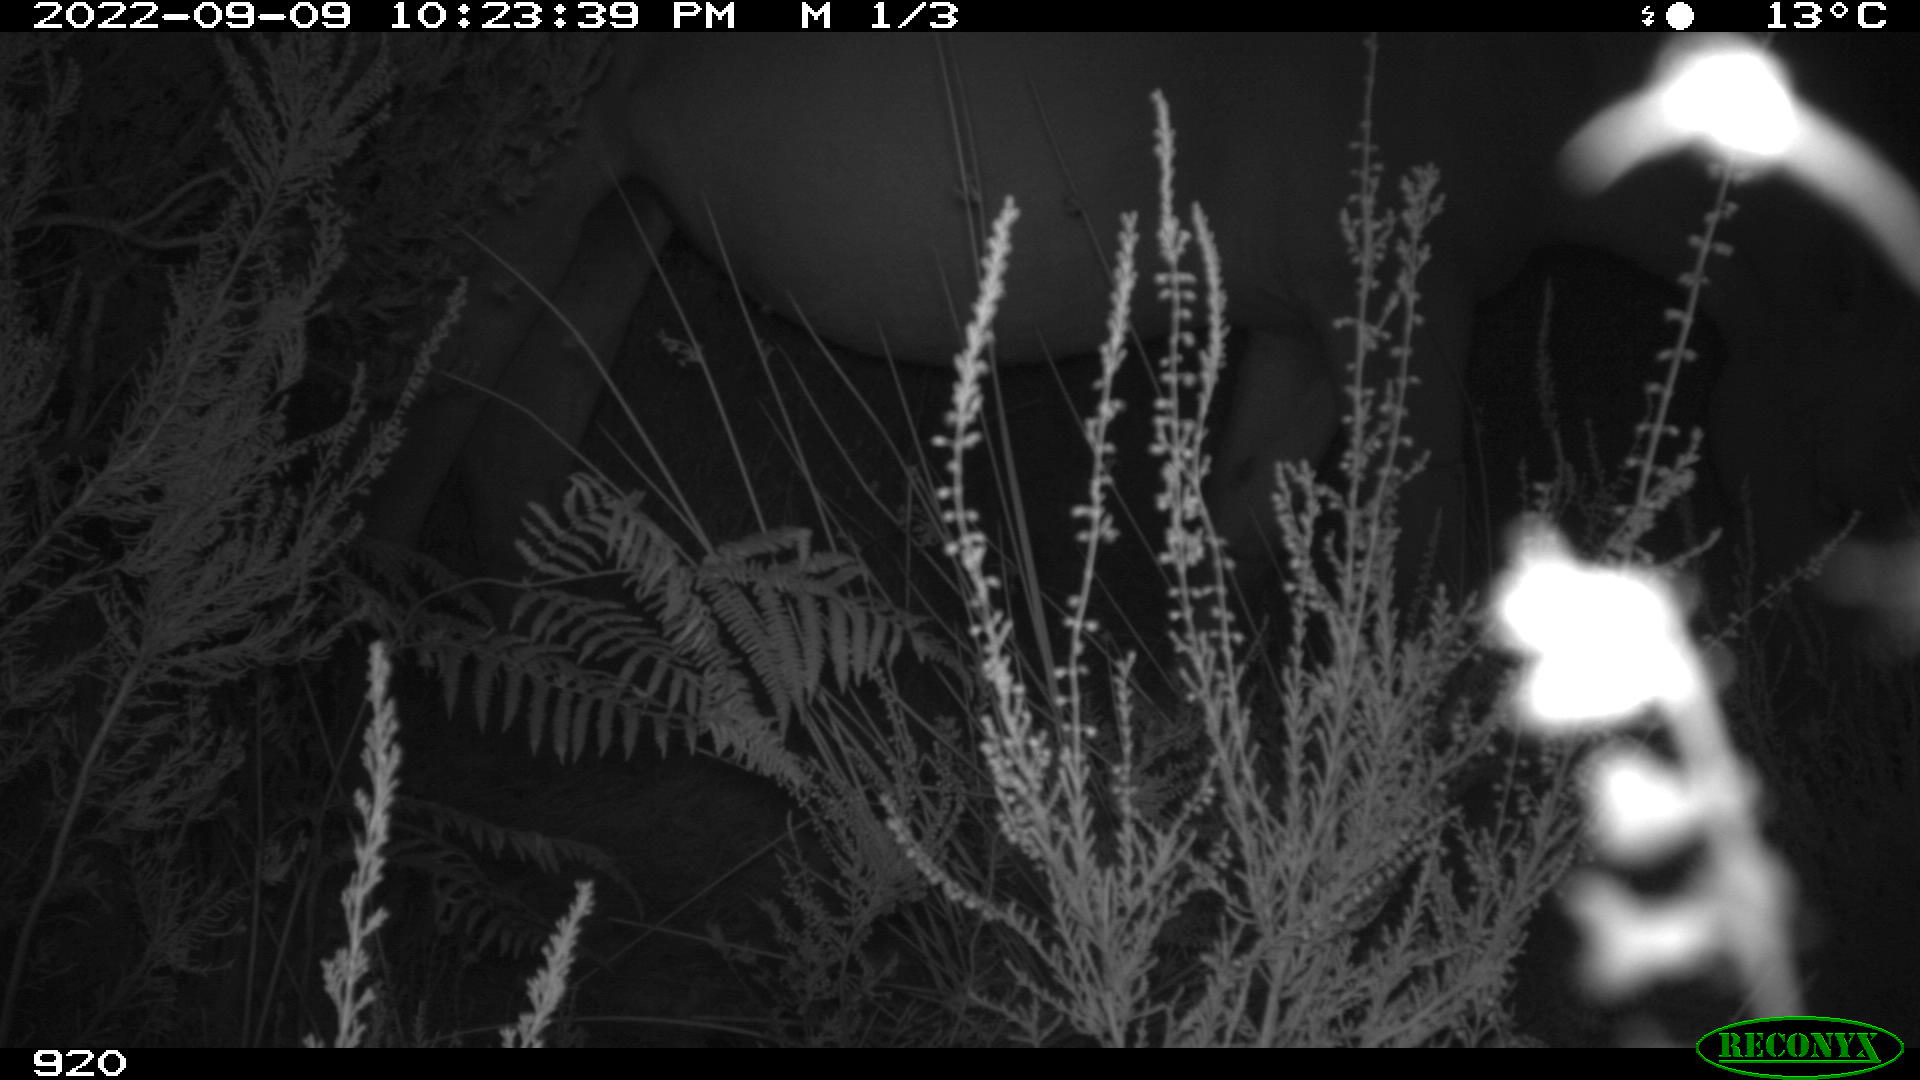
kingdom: Animalia
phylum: Chordata
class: Mammalia
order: Perissodactyla
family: Equidae
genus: Equus
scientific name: Equus caballus
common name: Horse
